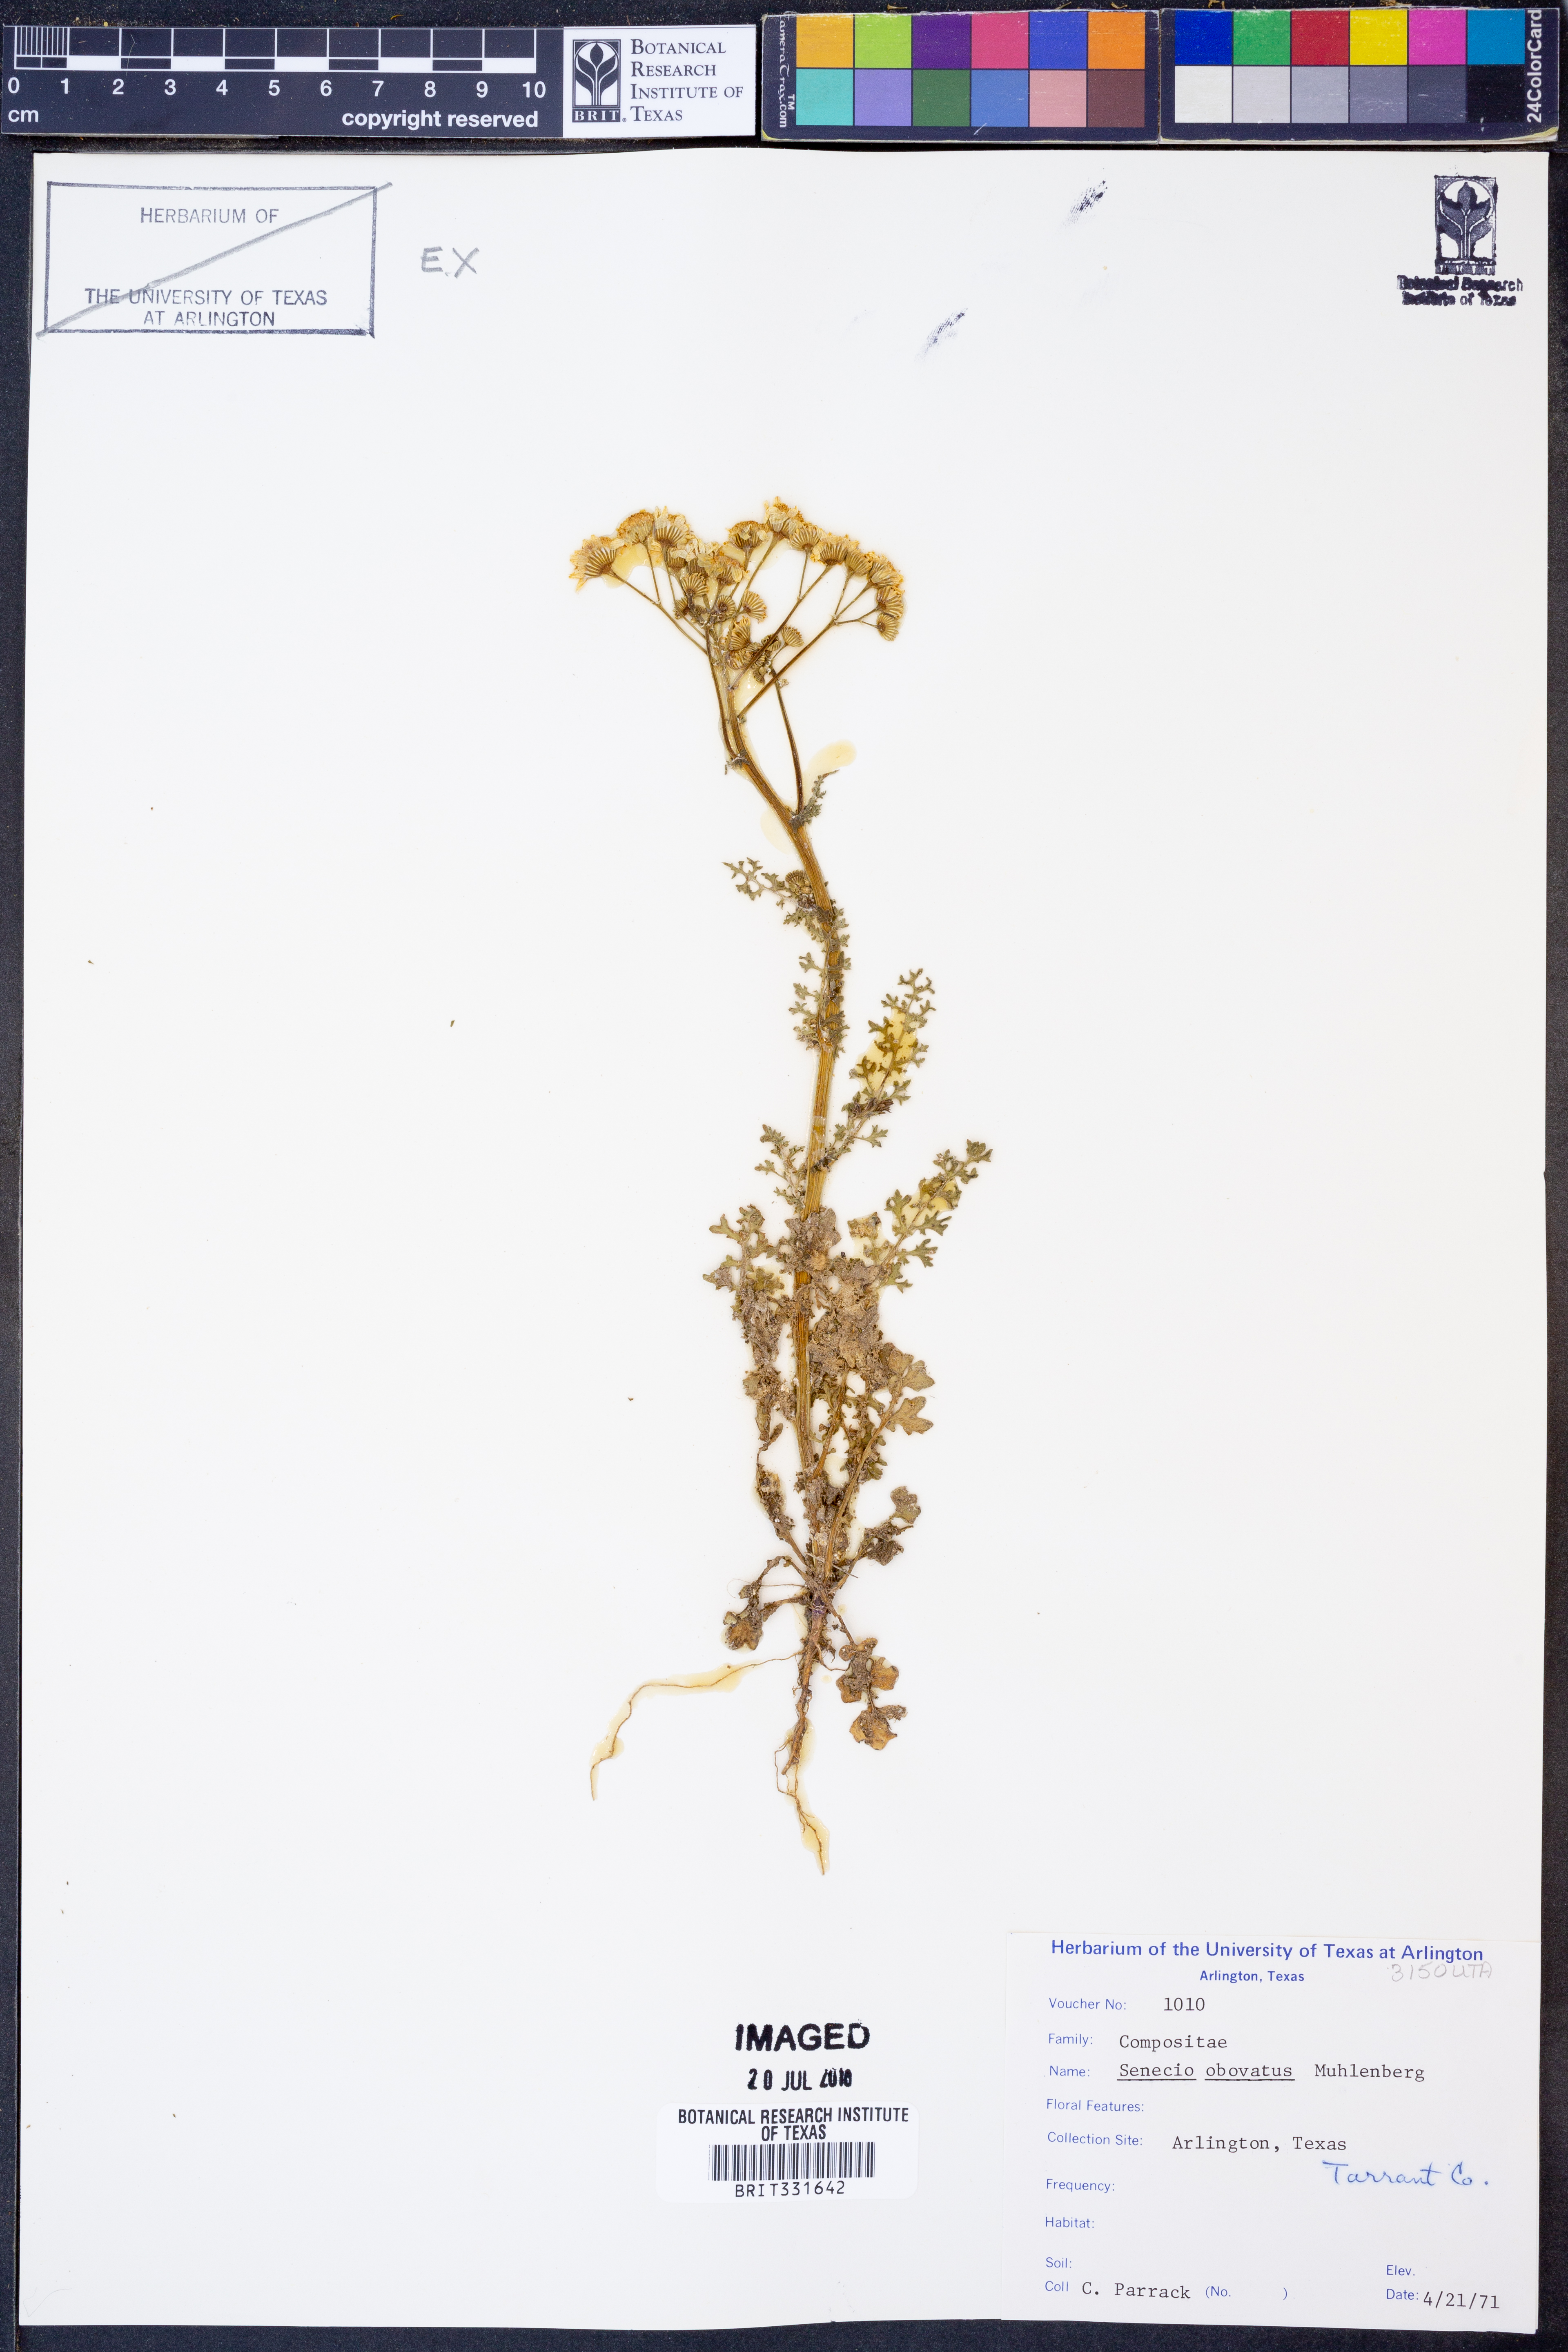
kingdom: Plantae
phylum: Tracheophyta
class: Magnoliopsida
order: Asterales
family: Asteraceae
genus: Senecio
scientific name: Senecio provincialis
